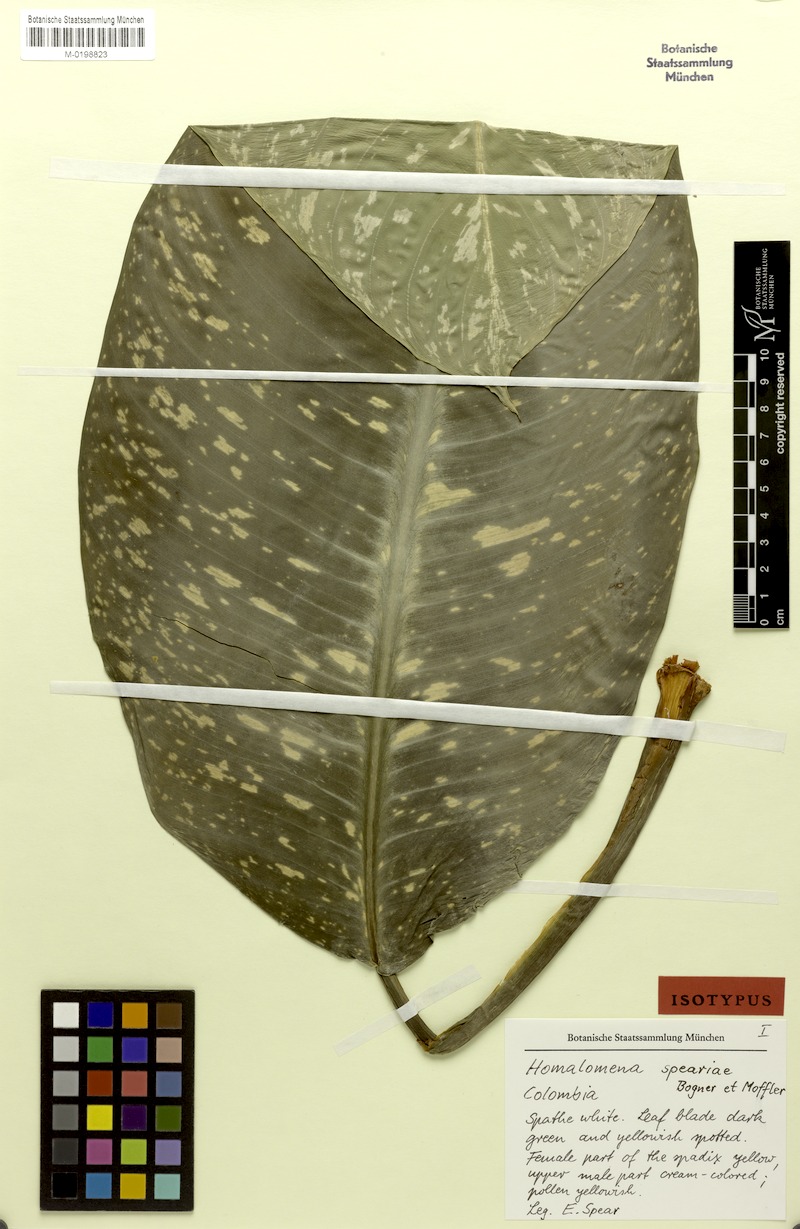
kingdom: Plantae
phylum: Tracheophyta
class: Liliopsida
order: Alismatales
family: Araceae
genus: Adelonema
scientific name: Adelonema speariae
